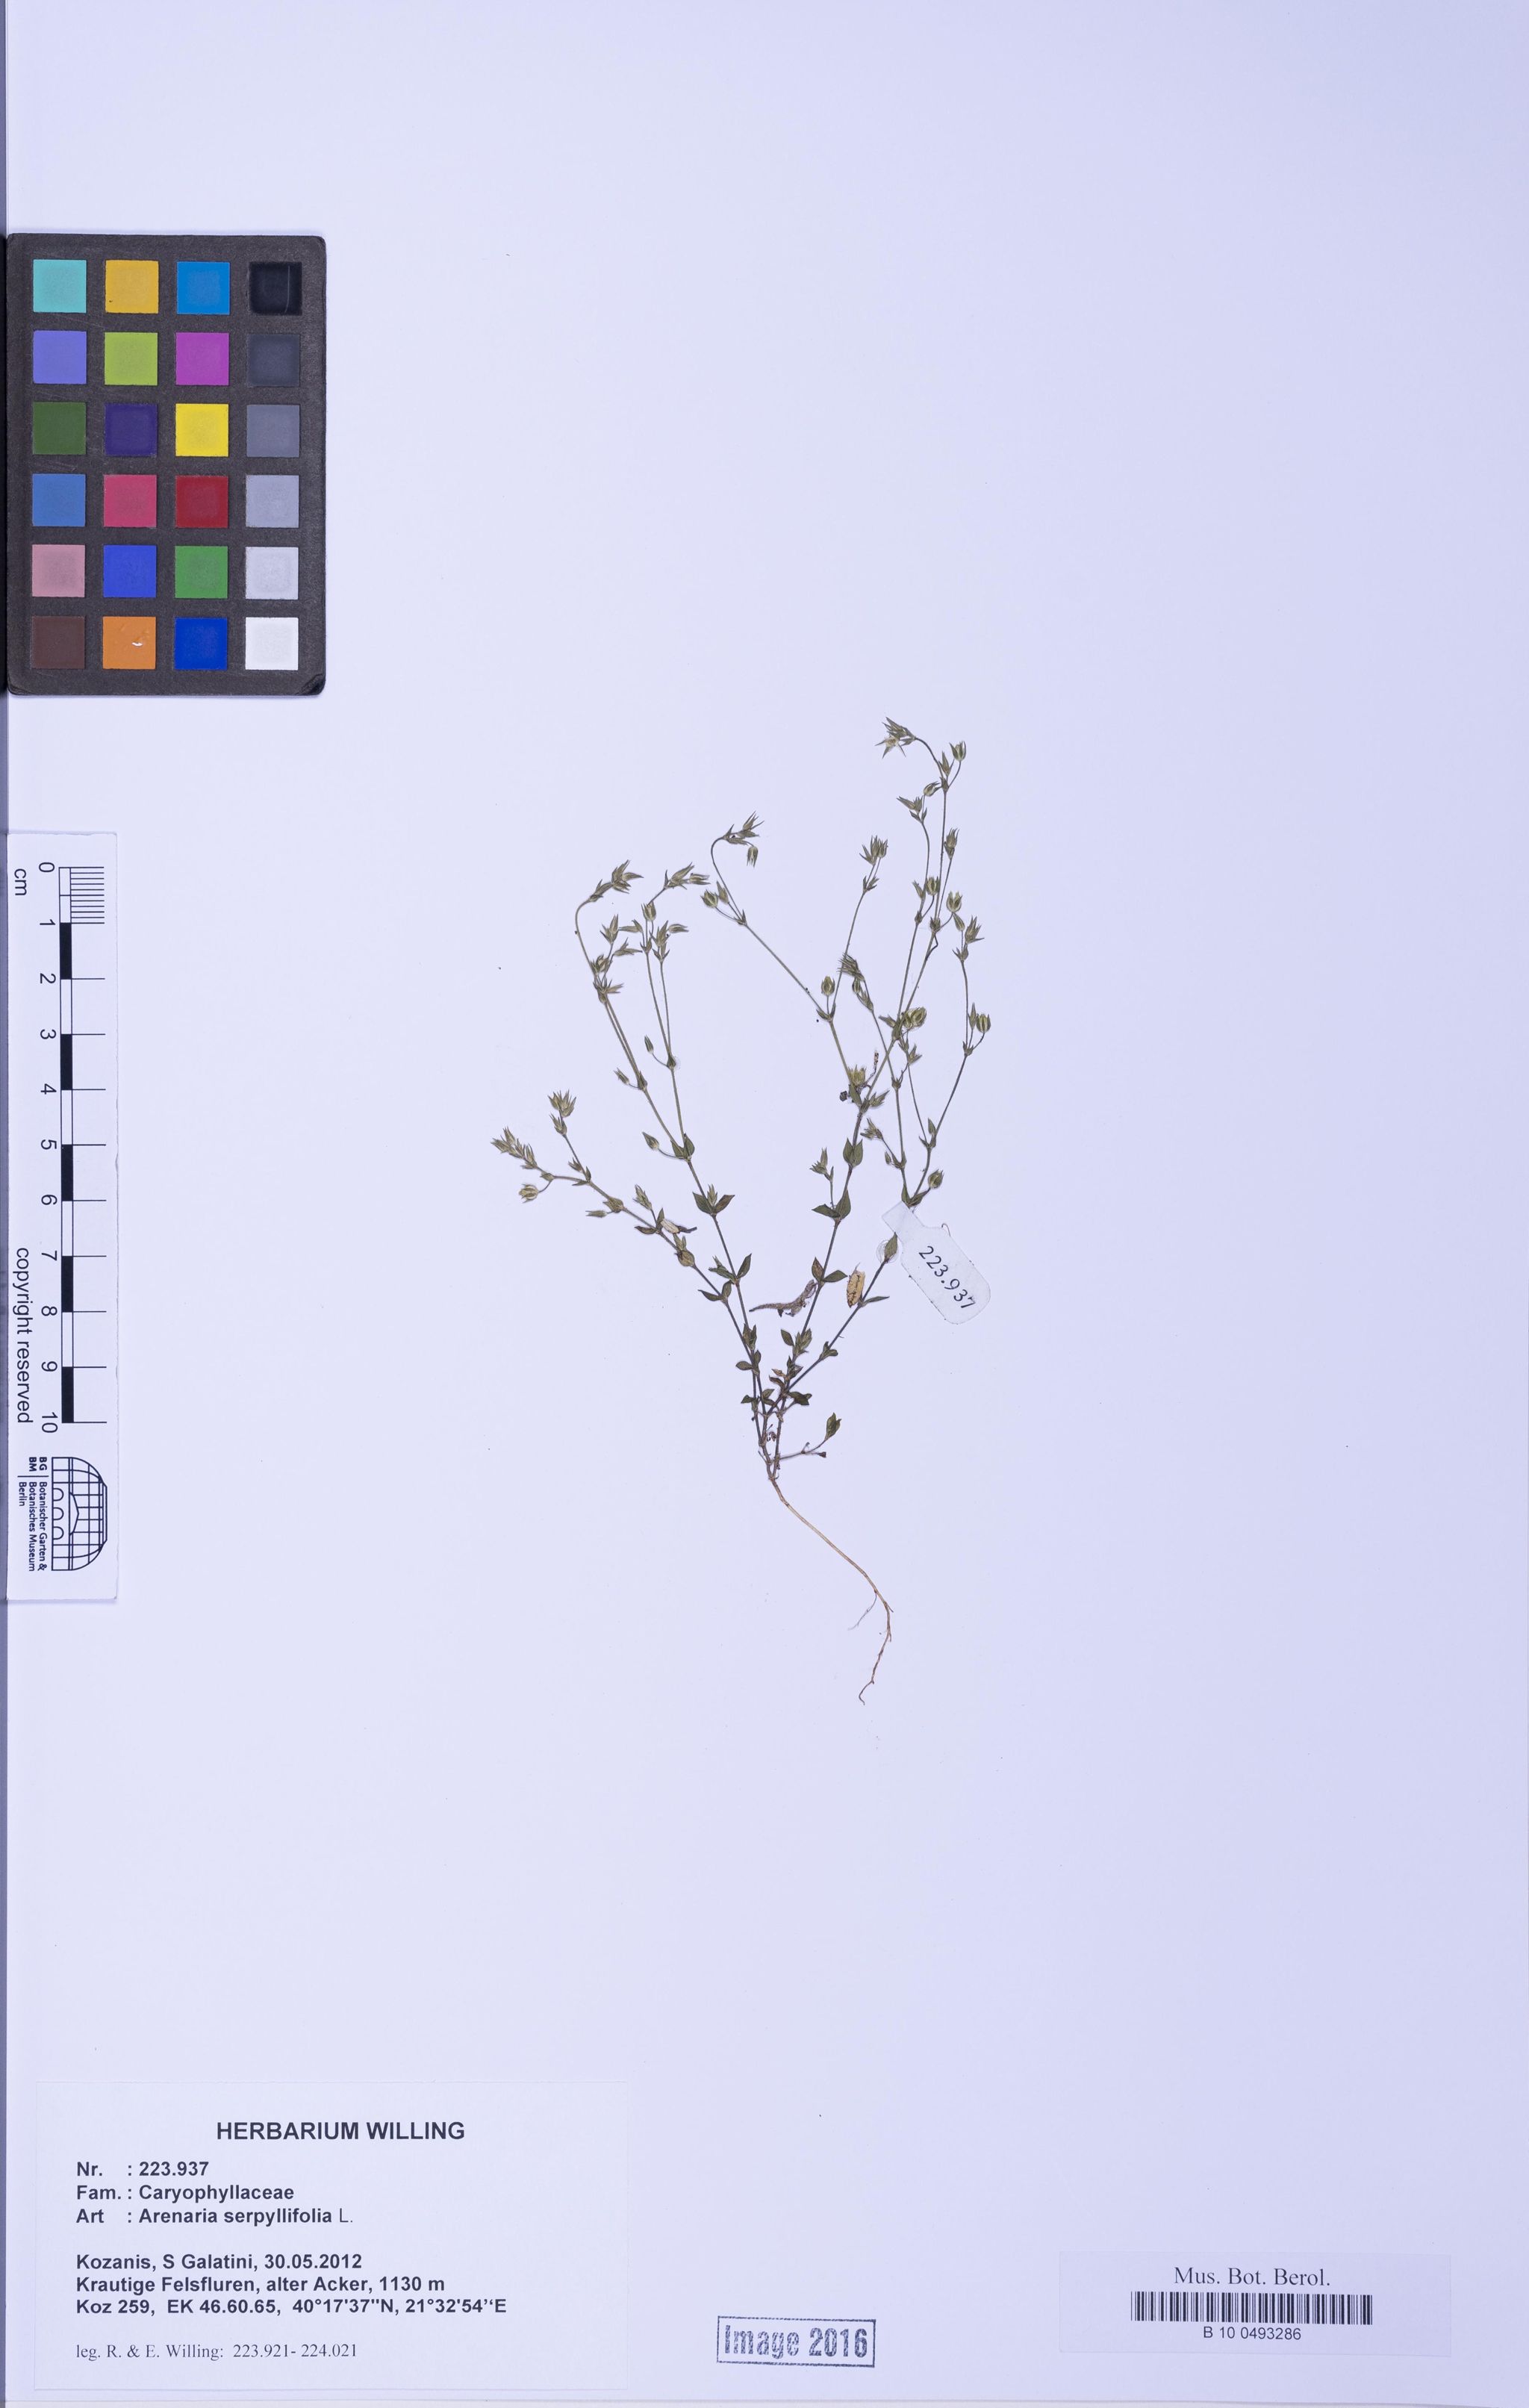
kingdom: Plantae
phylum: Tracheophyta
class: Magnoliopsida
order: Caryophyllales
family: Caryophyllaceae
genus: Arenaria
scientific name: Arenaria serpyllifolia
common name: Thyme-leaved sandwort
